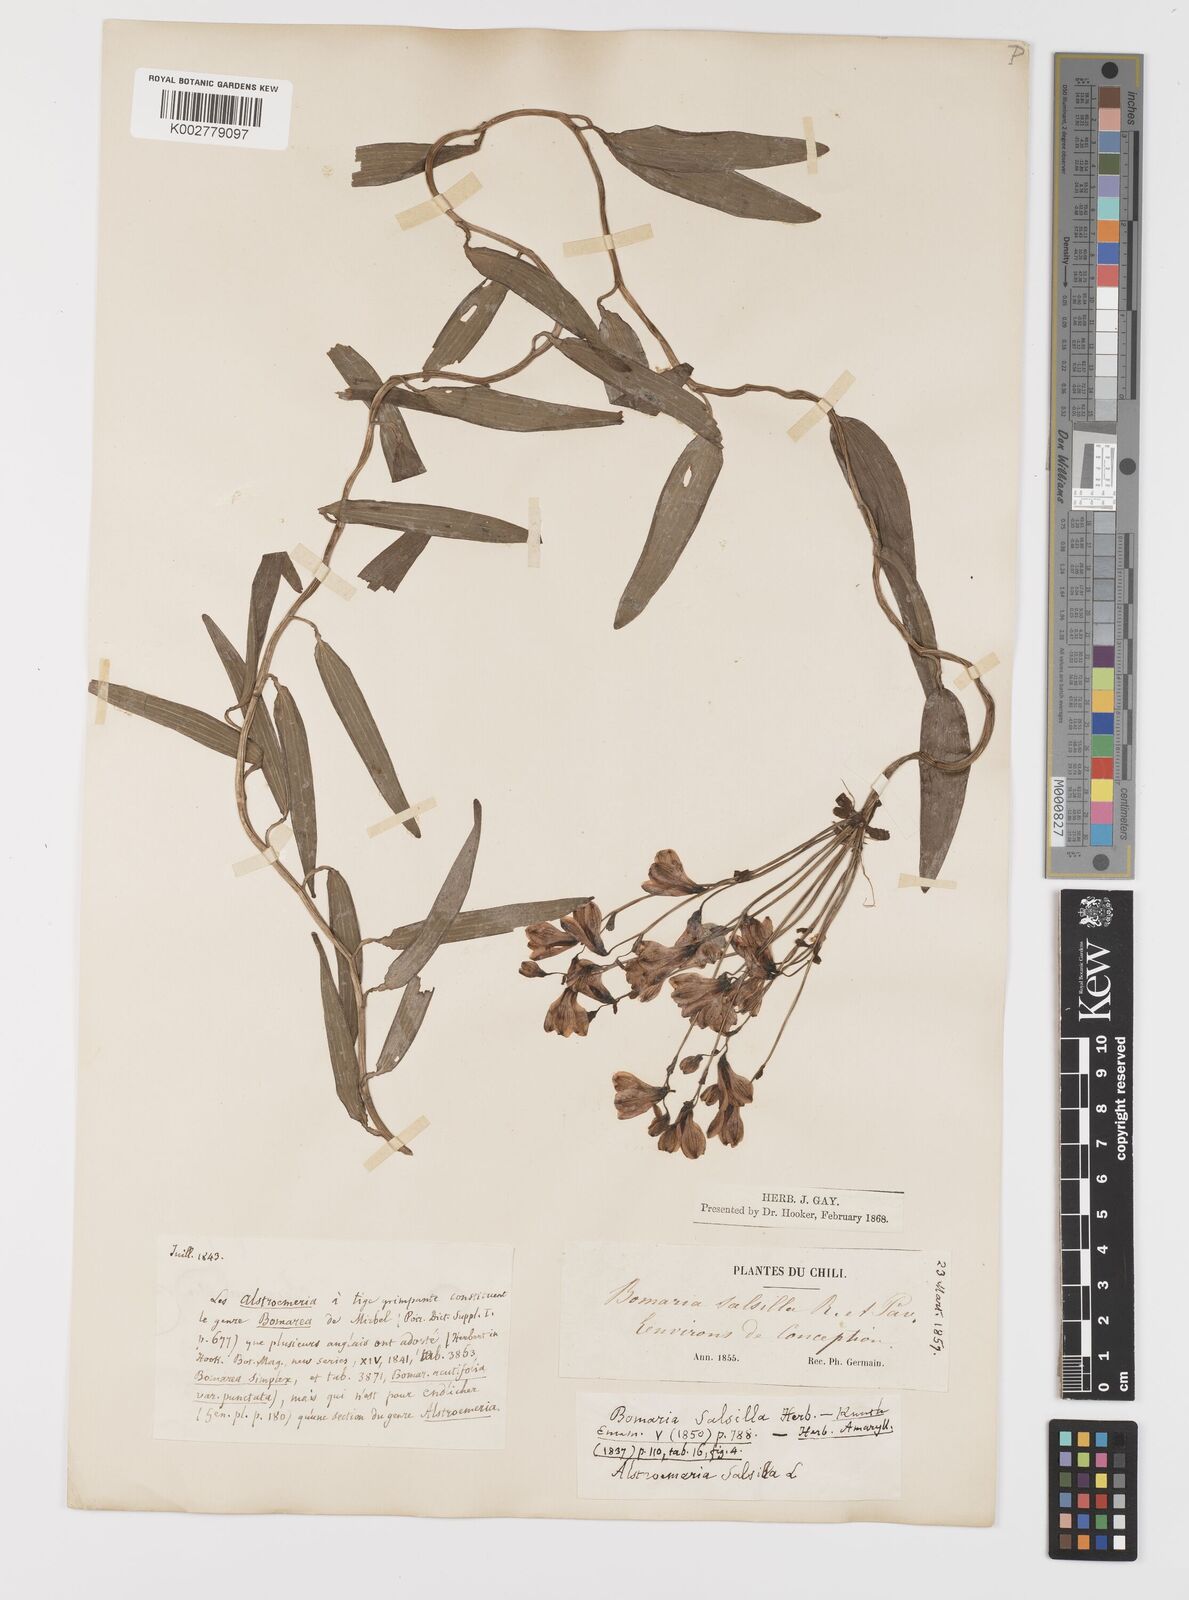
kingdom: Plantae
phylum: Tracheophyta
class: Liliopsida
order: Liliales
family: Alstroemeriaceae
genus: Bomarea
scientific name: Bomarea edulis
